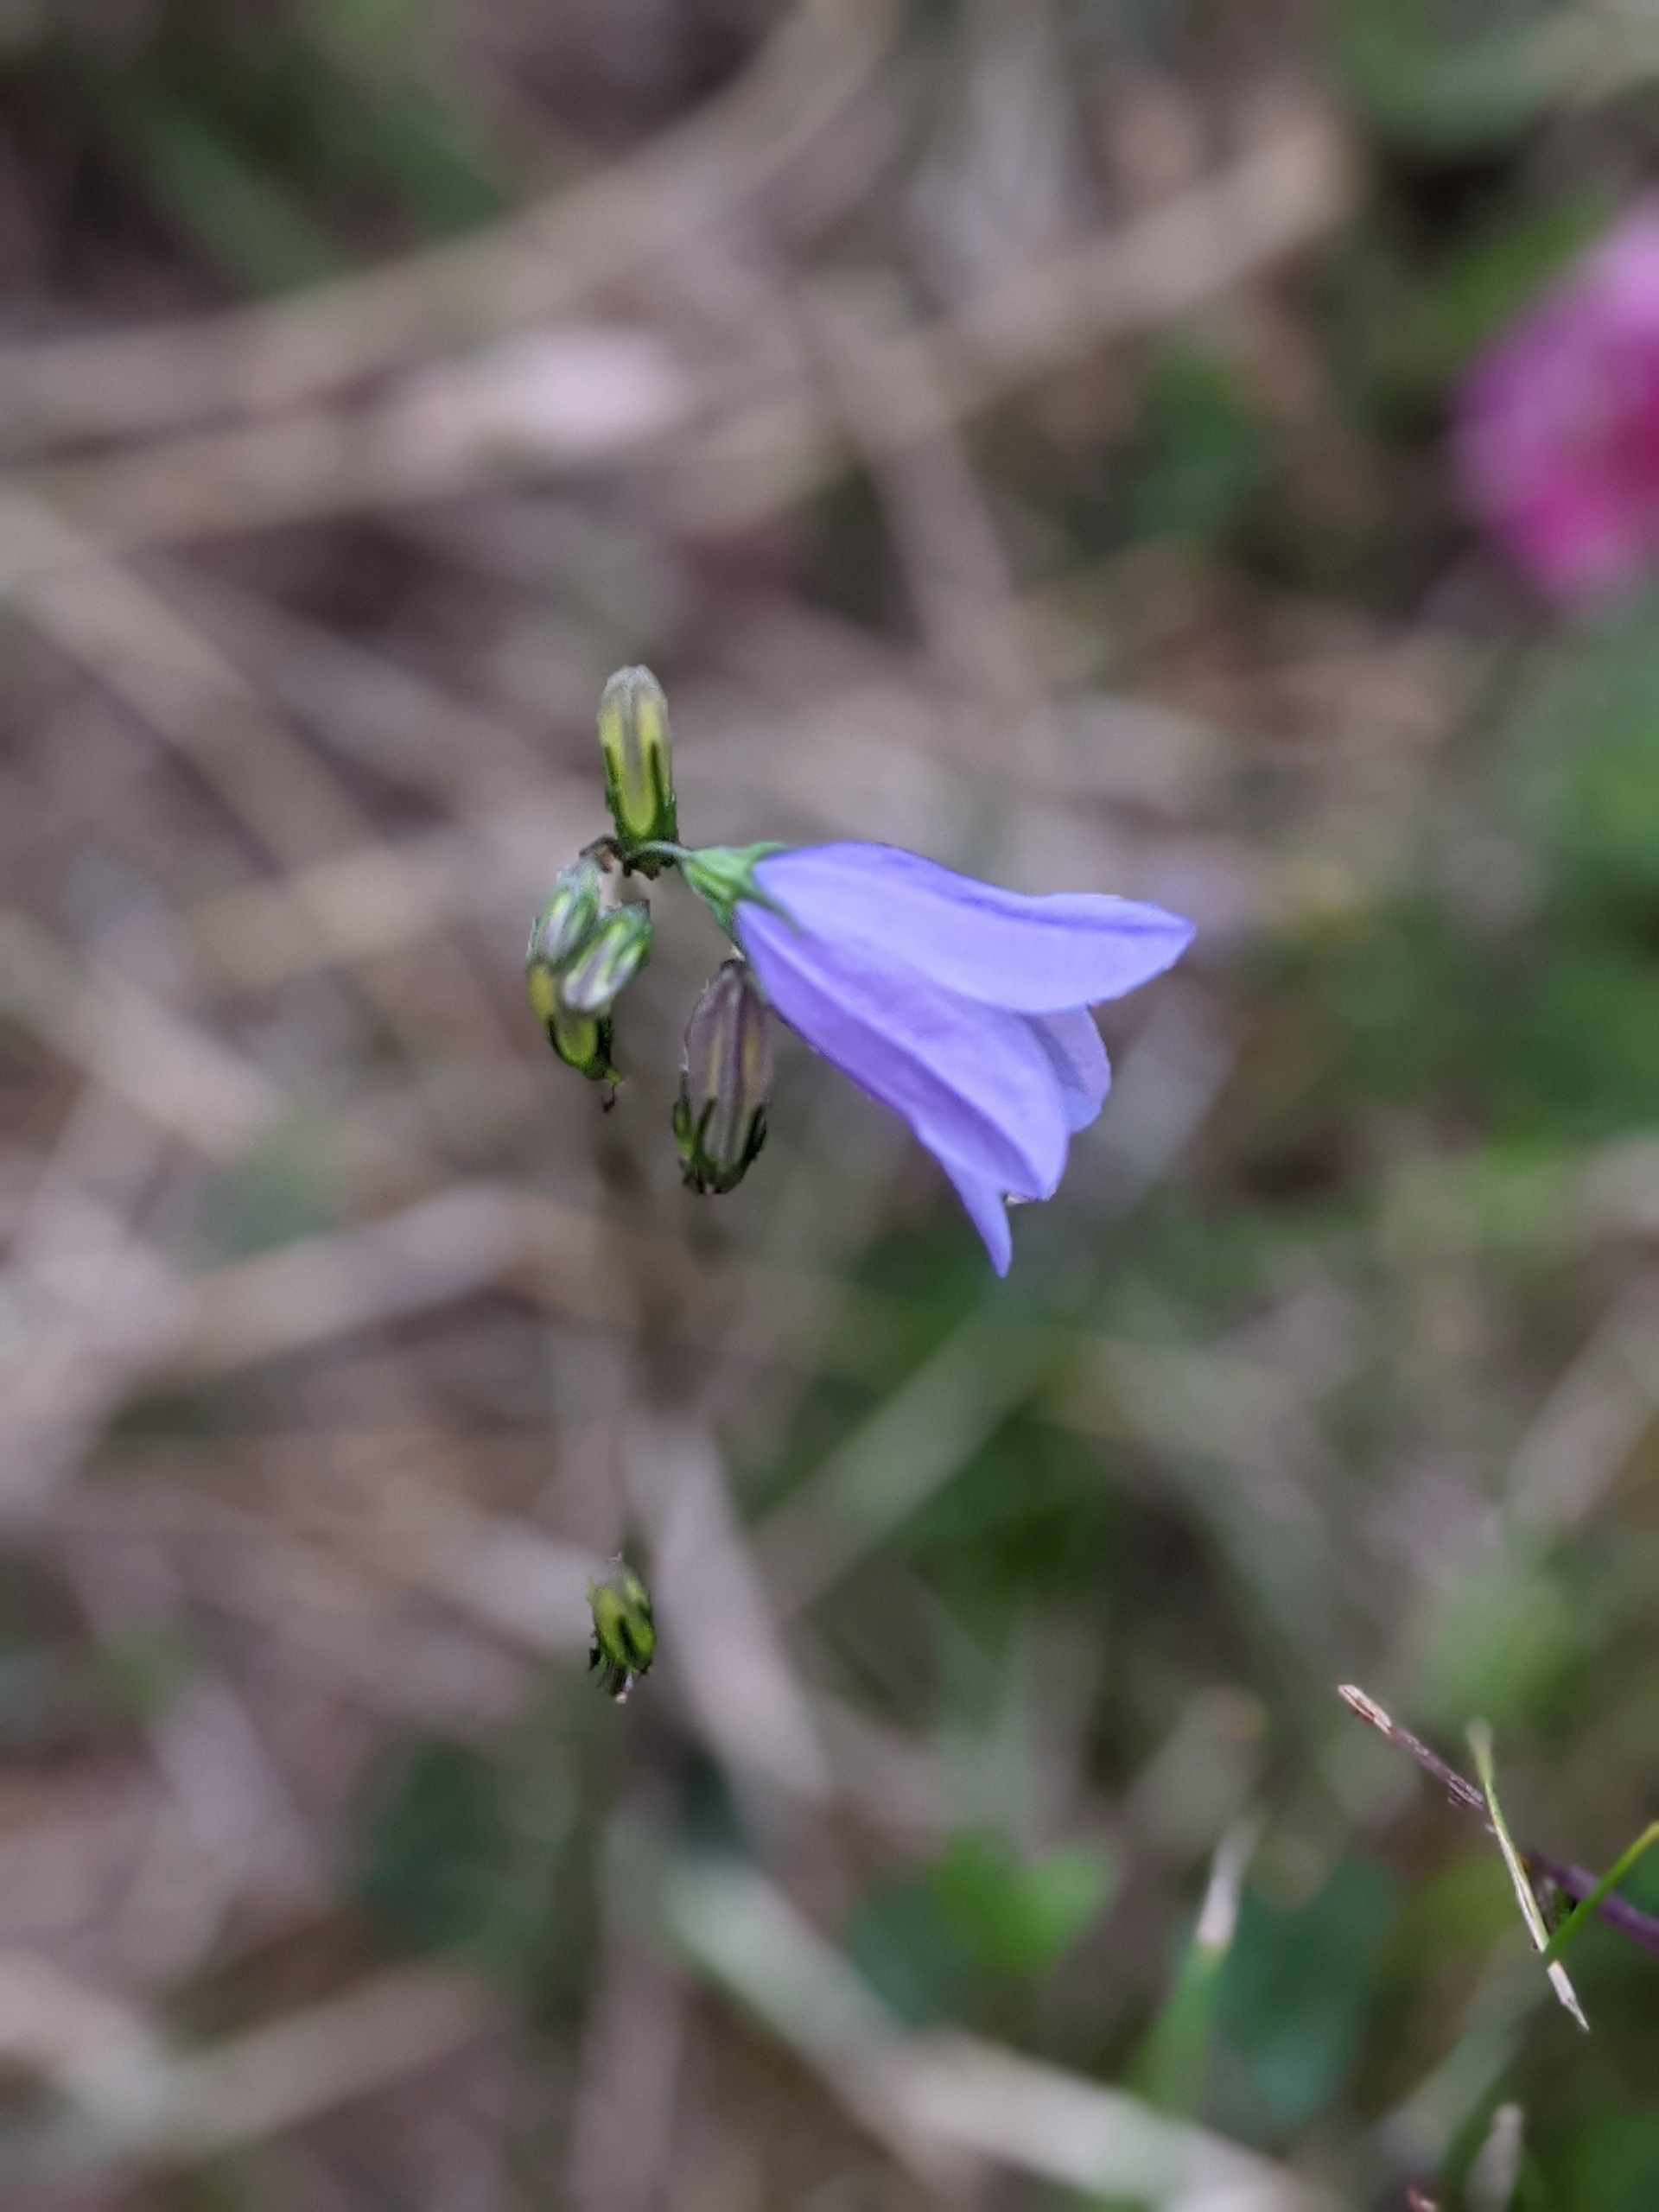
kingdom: Plantae
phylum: Tracheophyta
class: Magnoliopsida
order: Asterales
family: Campanulaceae
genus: Campanula
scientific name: Campanula rotundifolia
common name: Liden klokke
